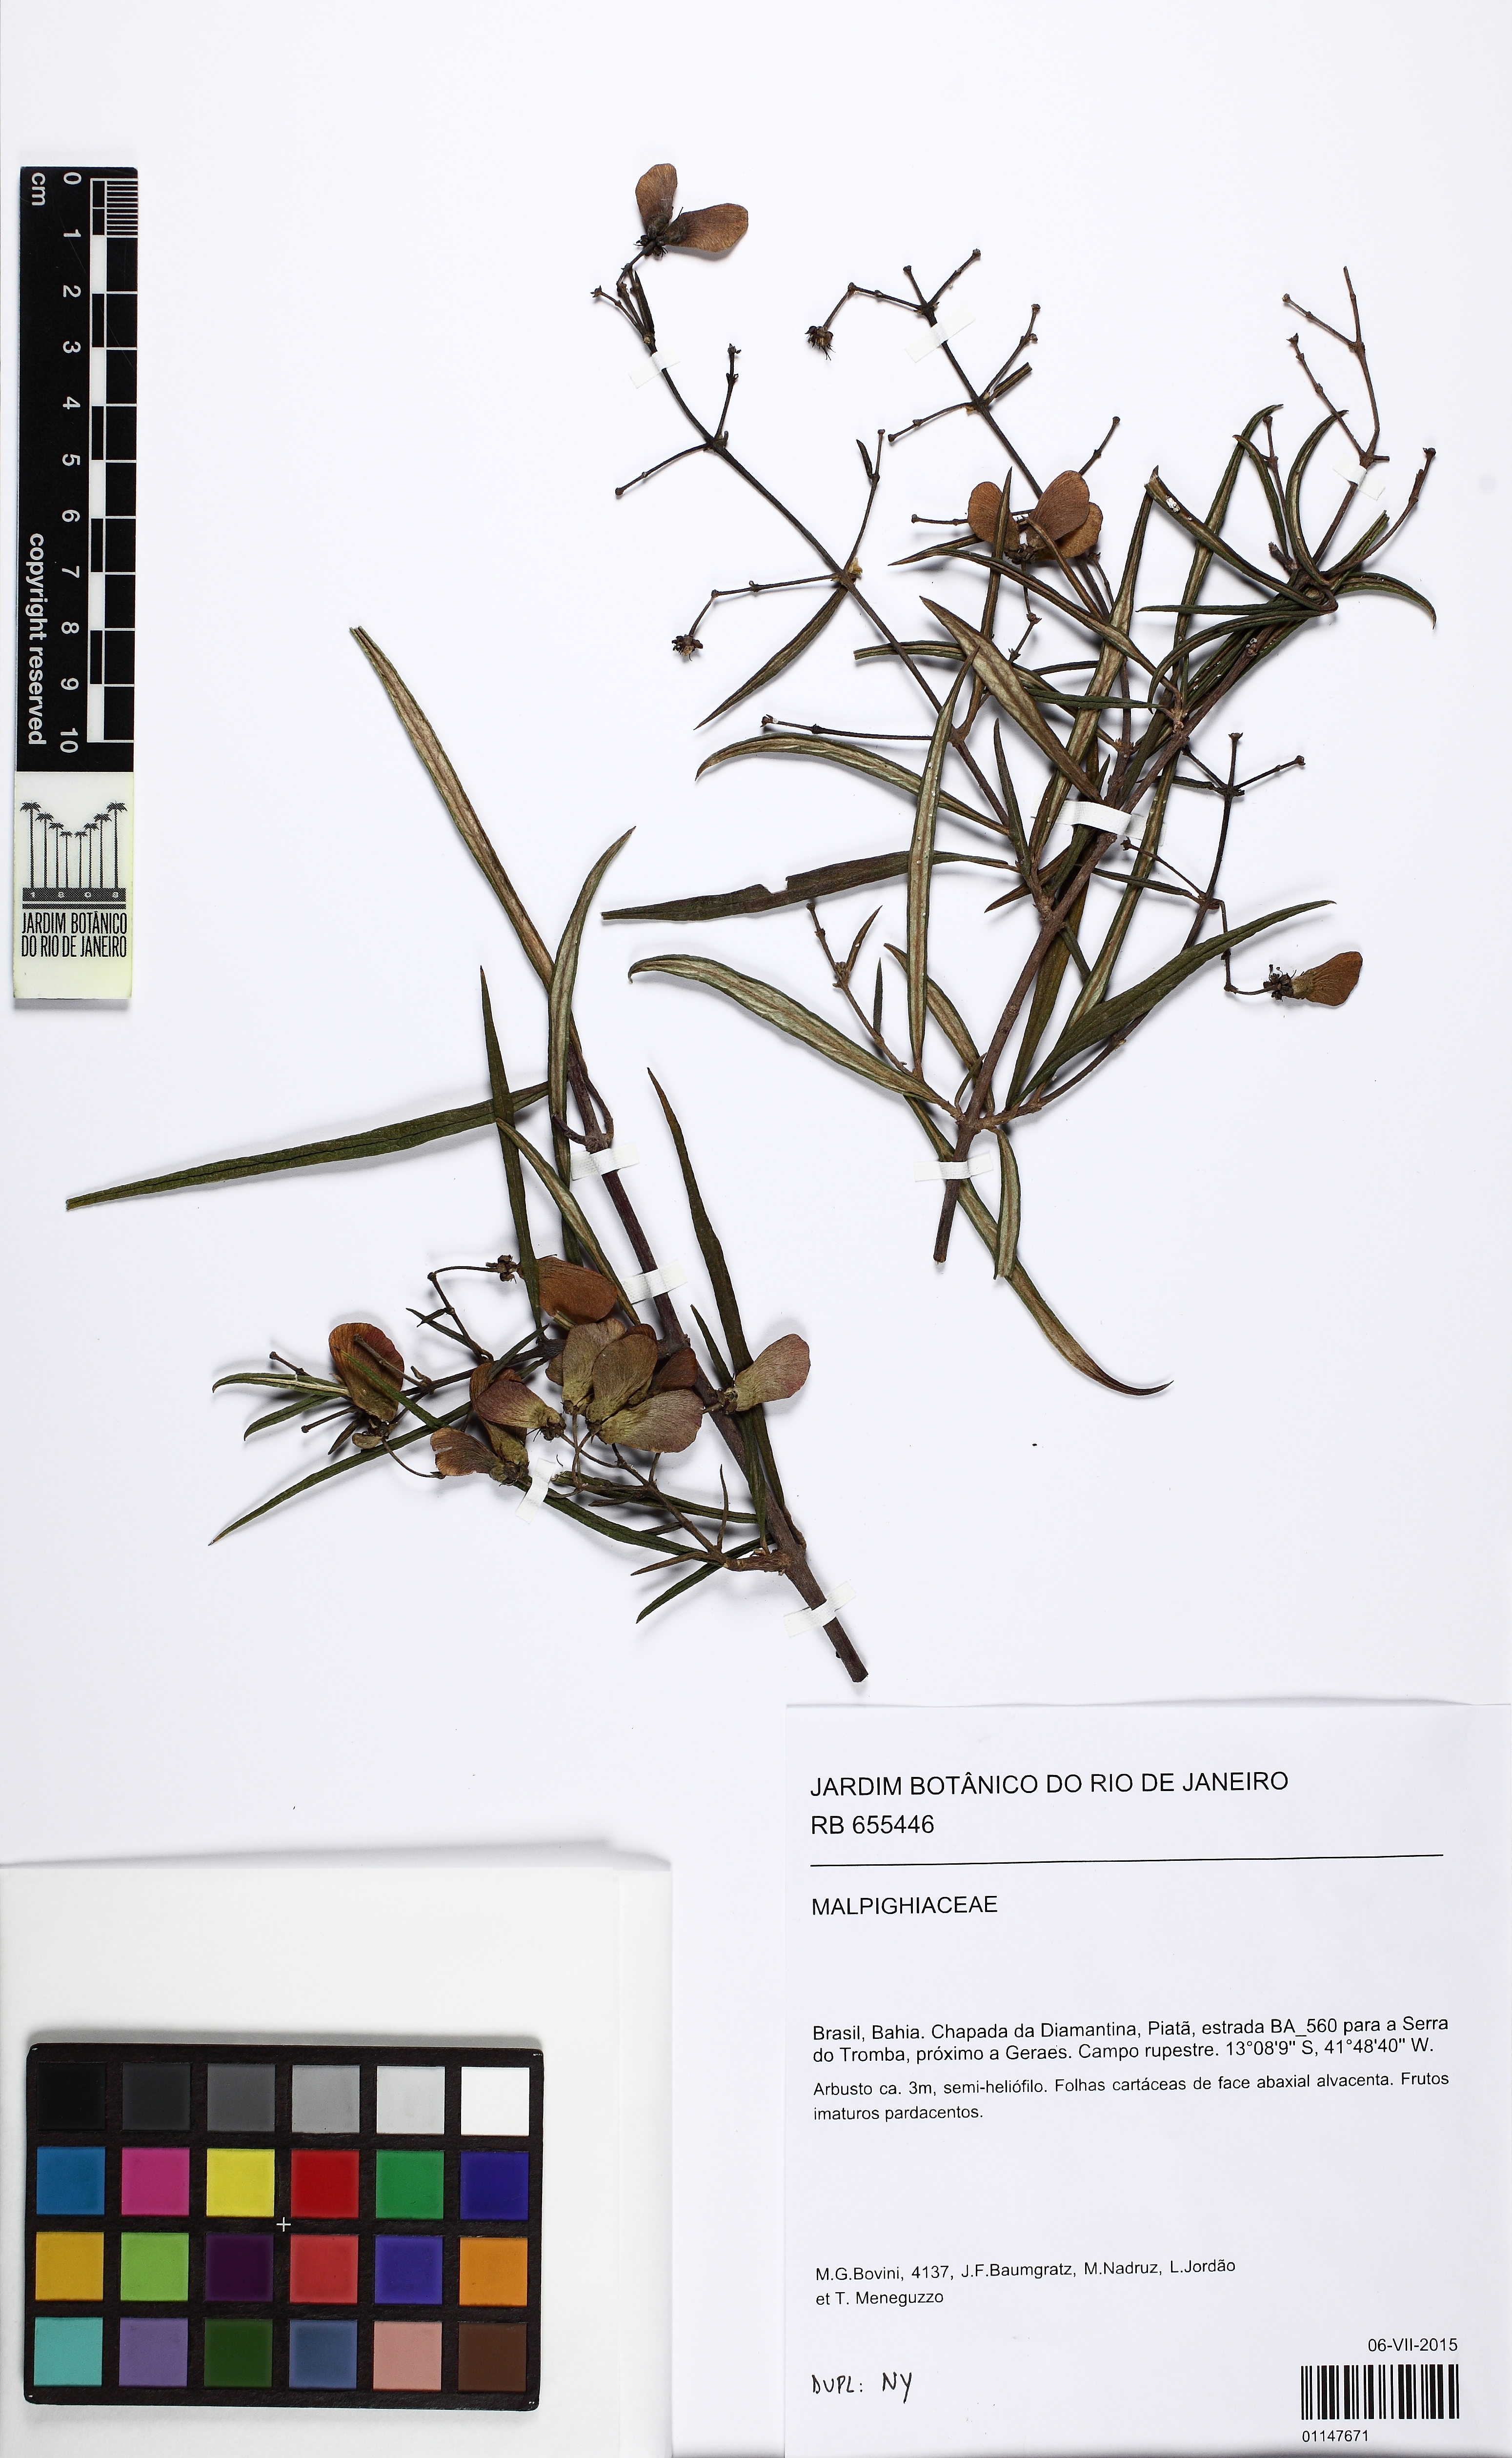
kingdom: Plantae
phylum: Tracheophyta
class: Magnoliopsida
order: Malpighiales
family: Malpighiaceae
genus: Banisteriopsis
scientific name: Banisteriopsis vernoniifolia
